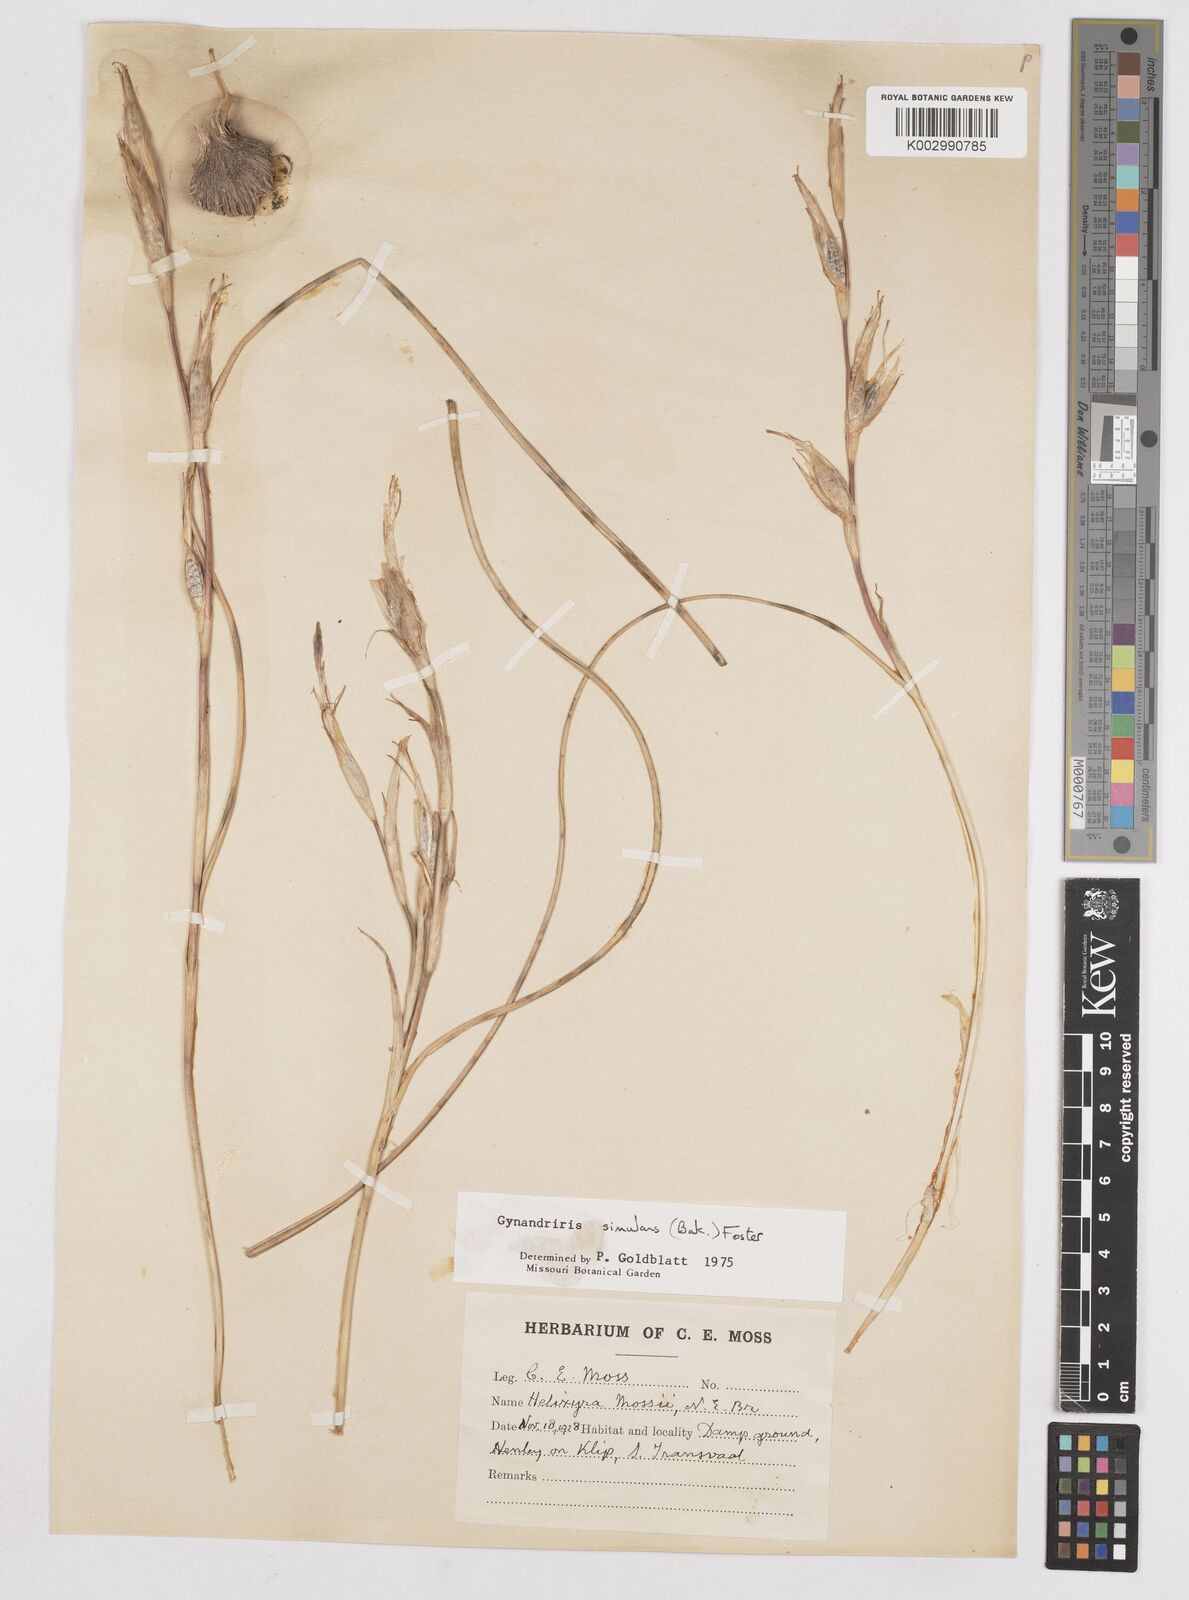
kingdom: Plantae
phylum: Tracheophyta
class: Liliopsida
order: Asparagales
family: Iridaceae
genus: Moraea
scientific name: Moraea simulans
